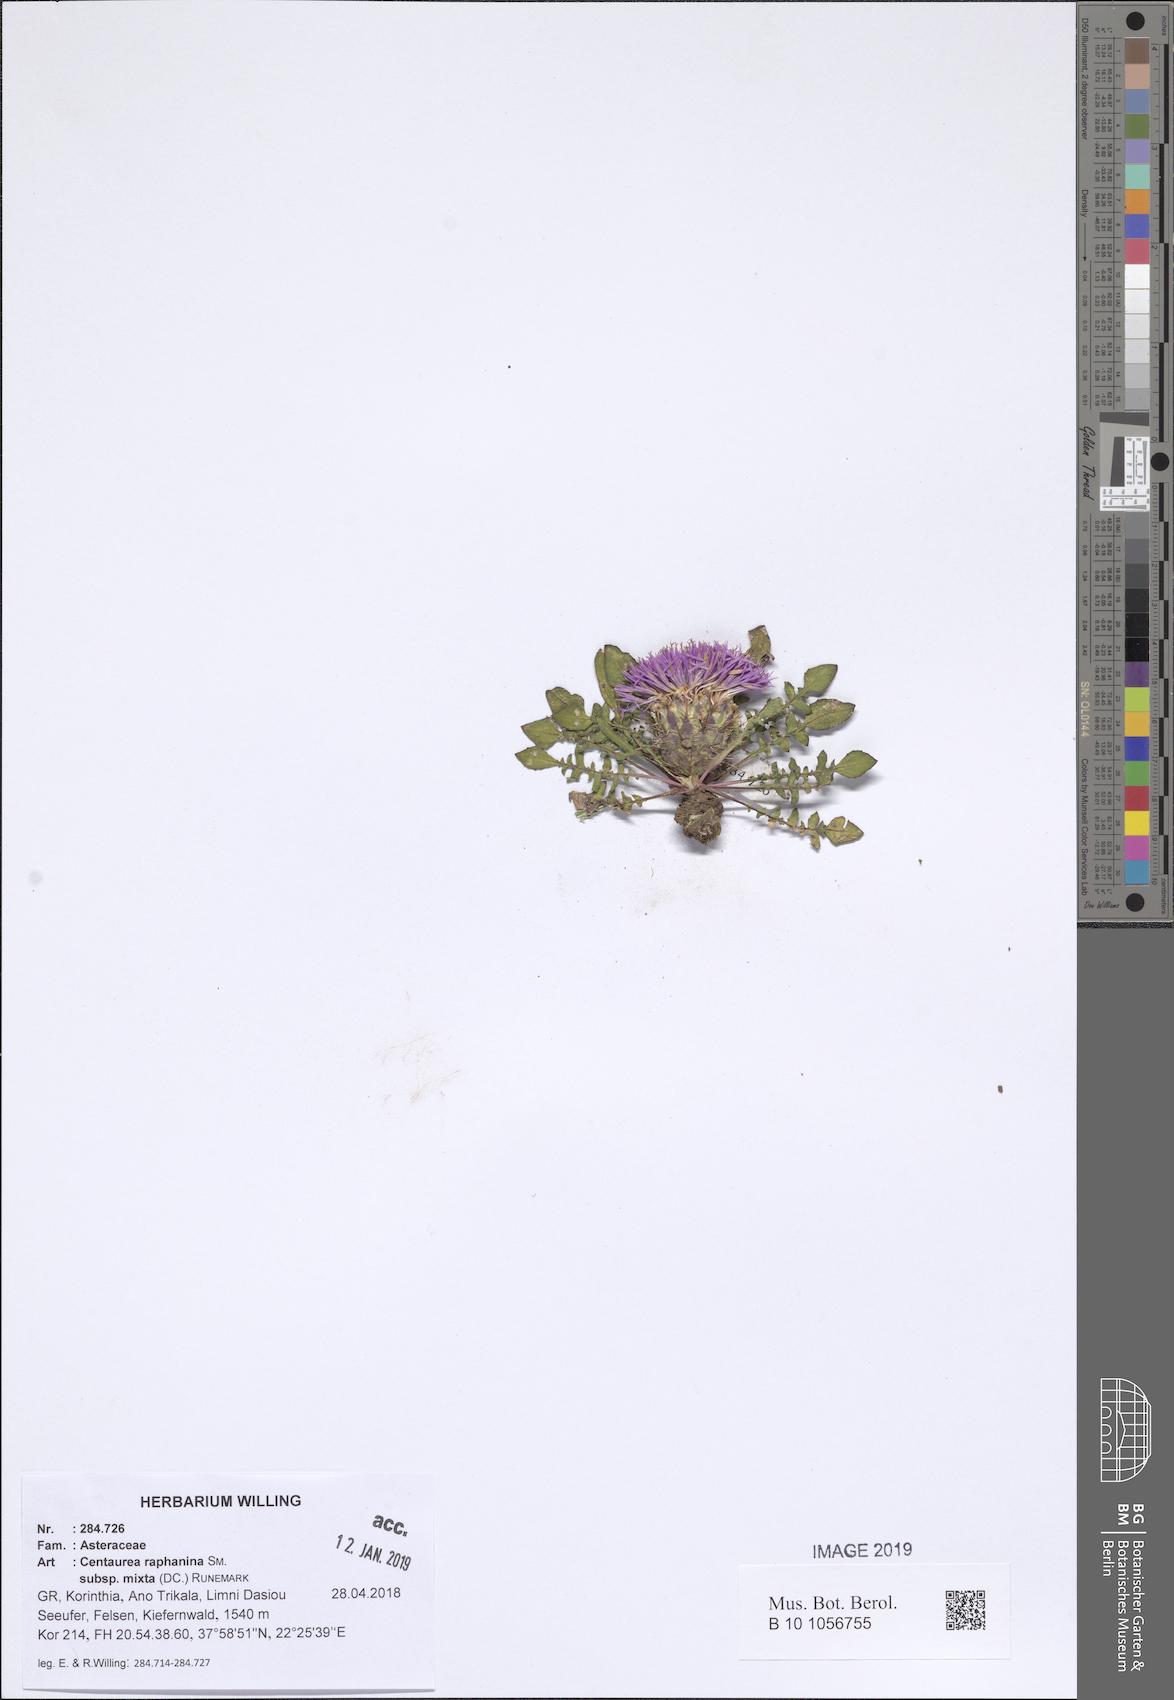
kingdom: Plantae
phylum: Tracheophyta
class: Magnoliopsida
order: Asterales
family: Asteraceae
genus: Centaurea
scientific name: Centaurea raphanina
